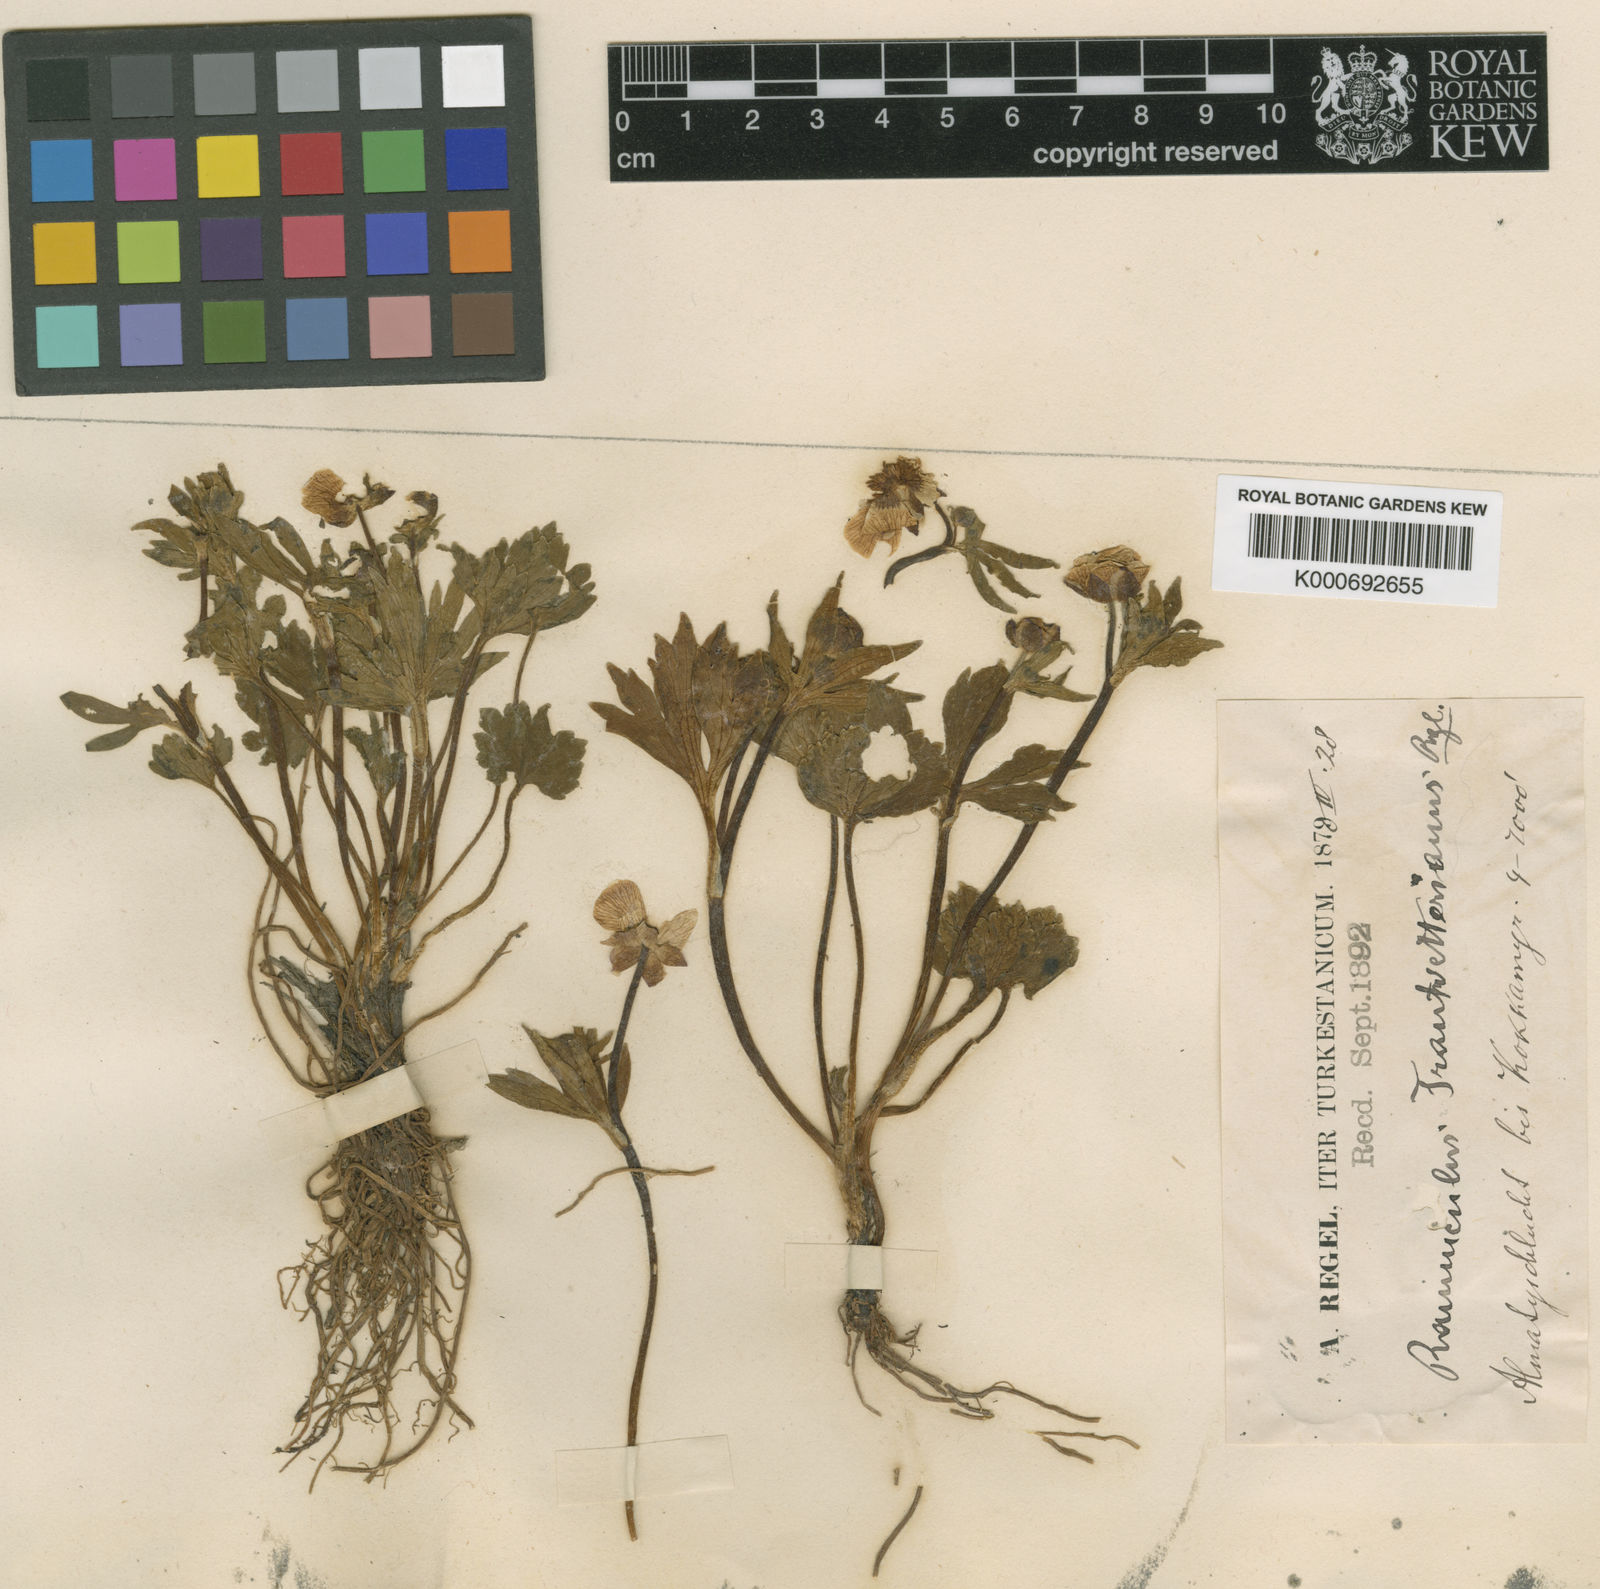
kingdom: Plantae
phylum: Tracheophyta
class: Magnoliopsida
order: Ranunculales
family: Ranunculaceae
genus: Ranunculus
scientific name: Ranunculus
